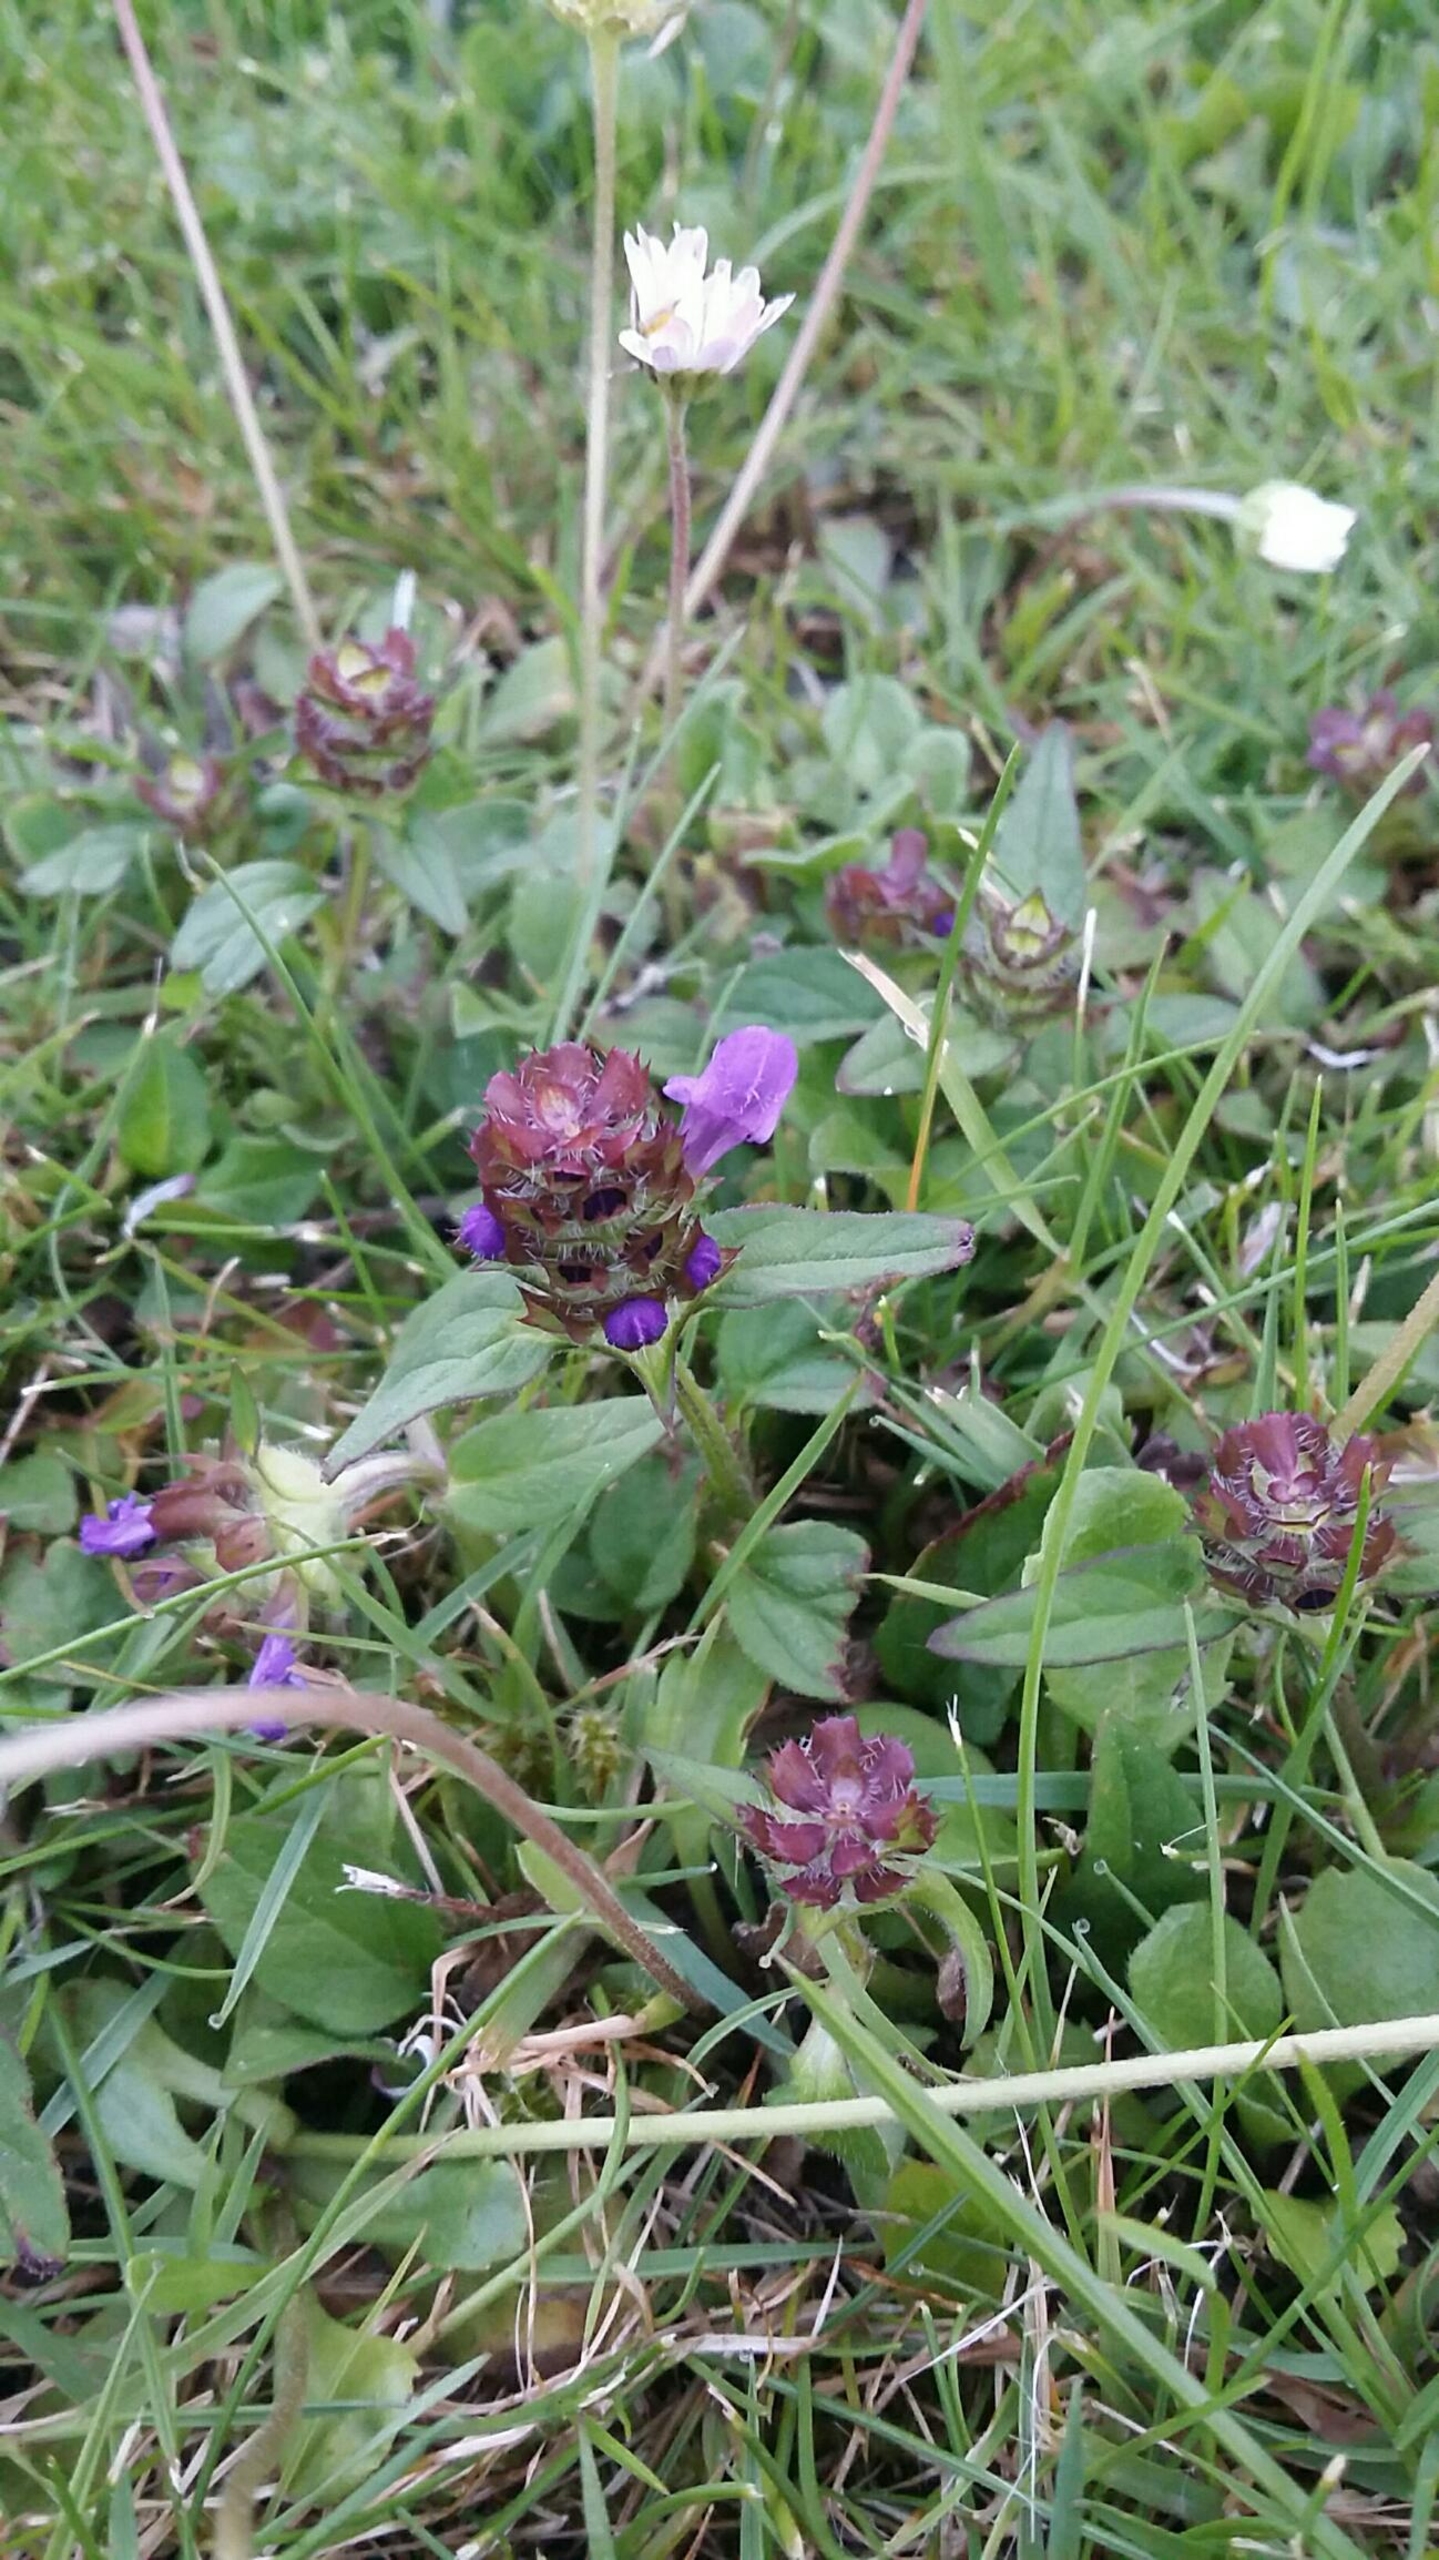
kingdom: Plantae
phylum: Tracheophyta
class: Magnoliopsida
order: Lamiales
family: Lamiaceae
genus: Prunella
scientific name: Prunella vulgaris
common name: Almindelig brunelle
